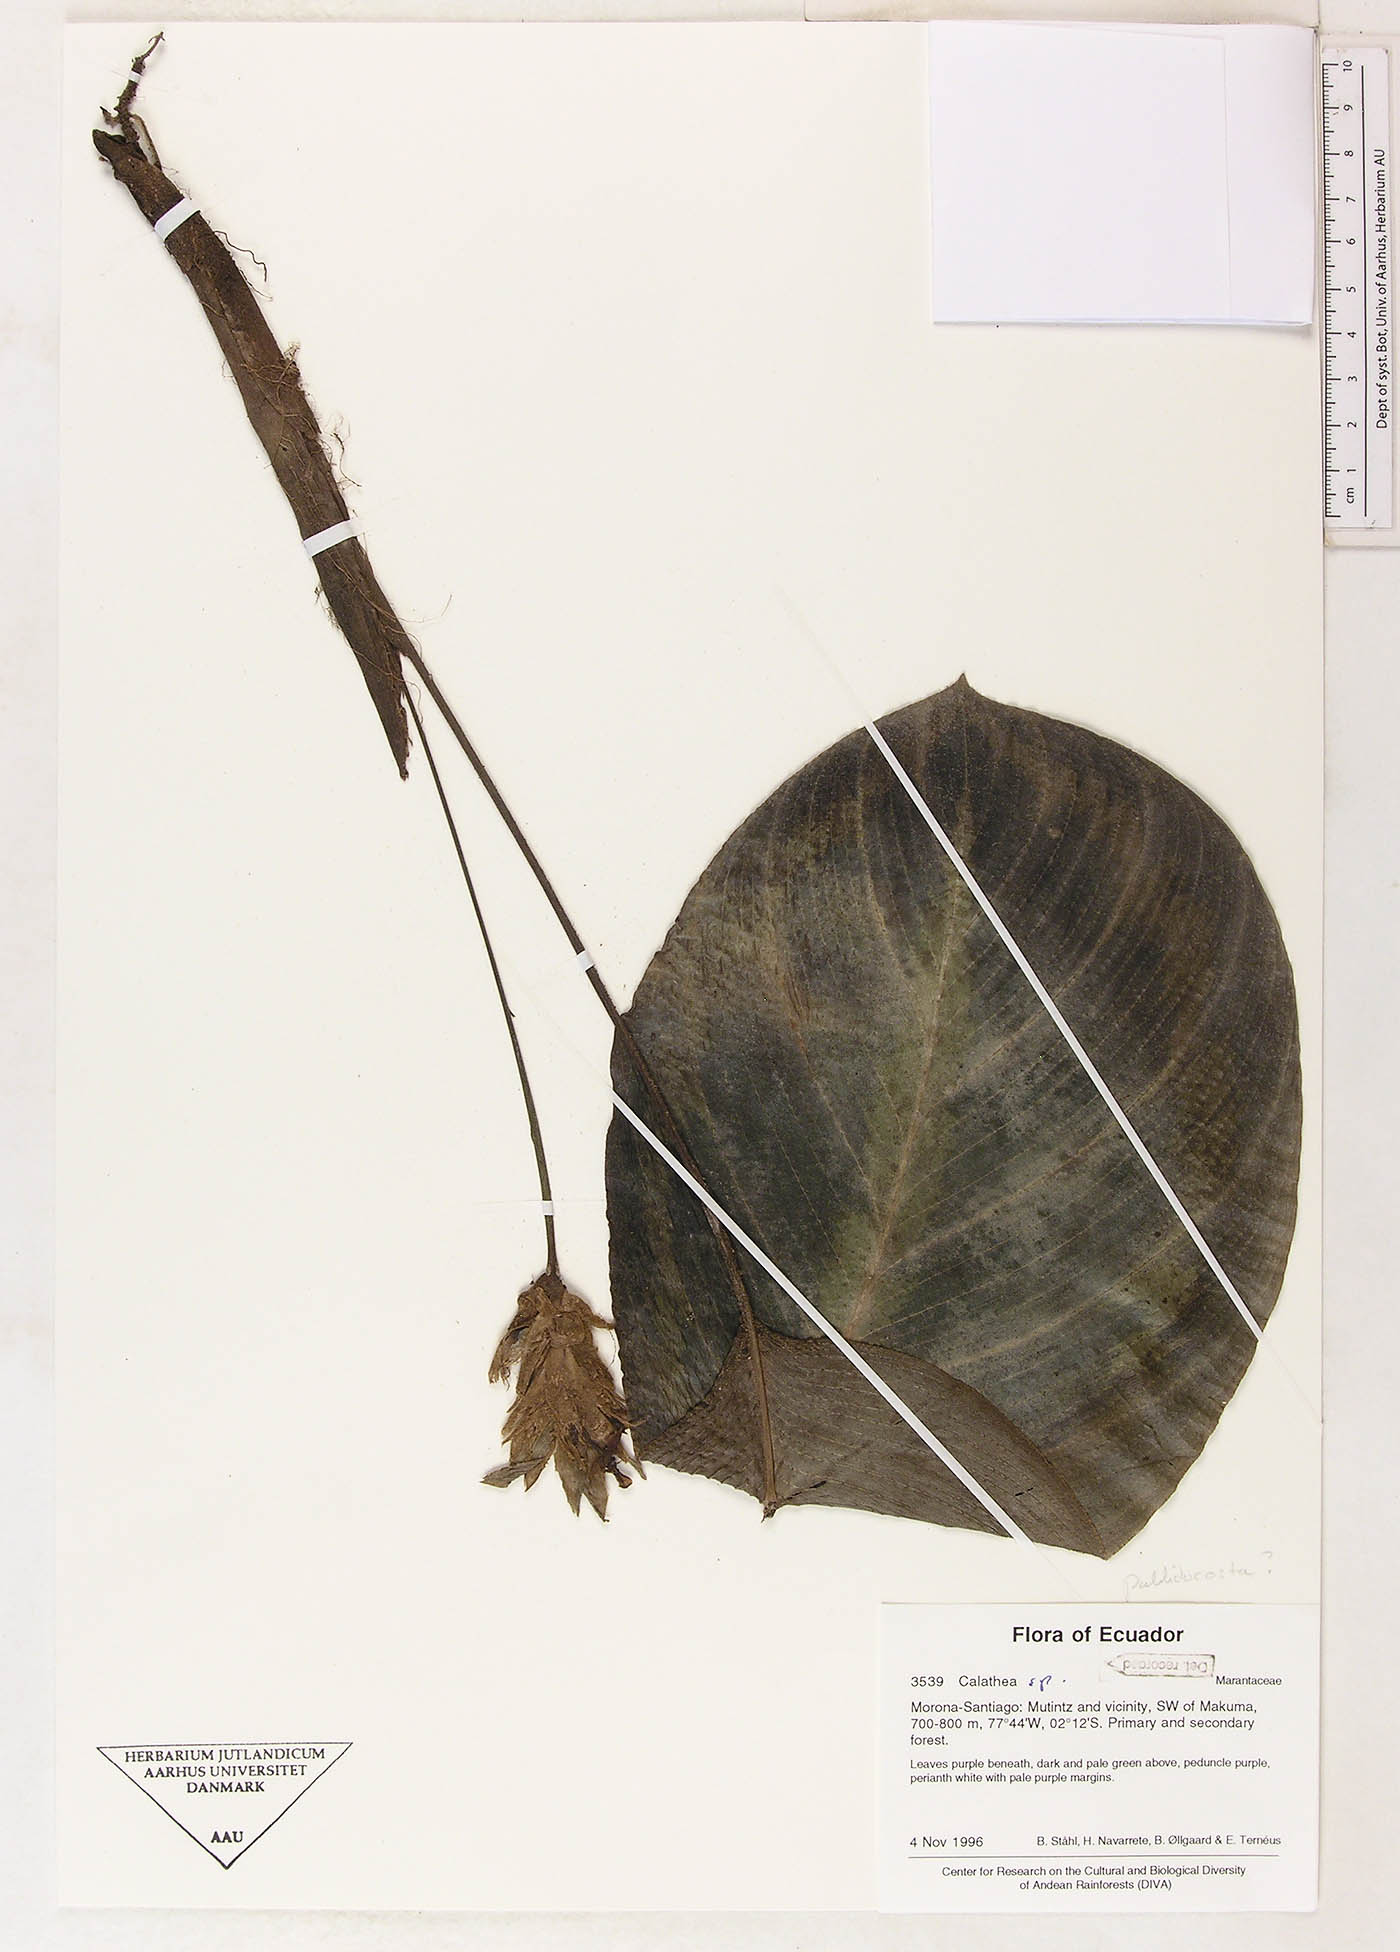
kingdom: Plantae
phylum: Tracheophyta
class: Magnoliopsida
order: Laurales
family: Lauraceae
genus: Goeppertia
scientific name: Goeppertia
